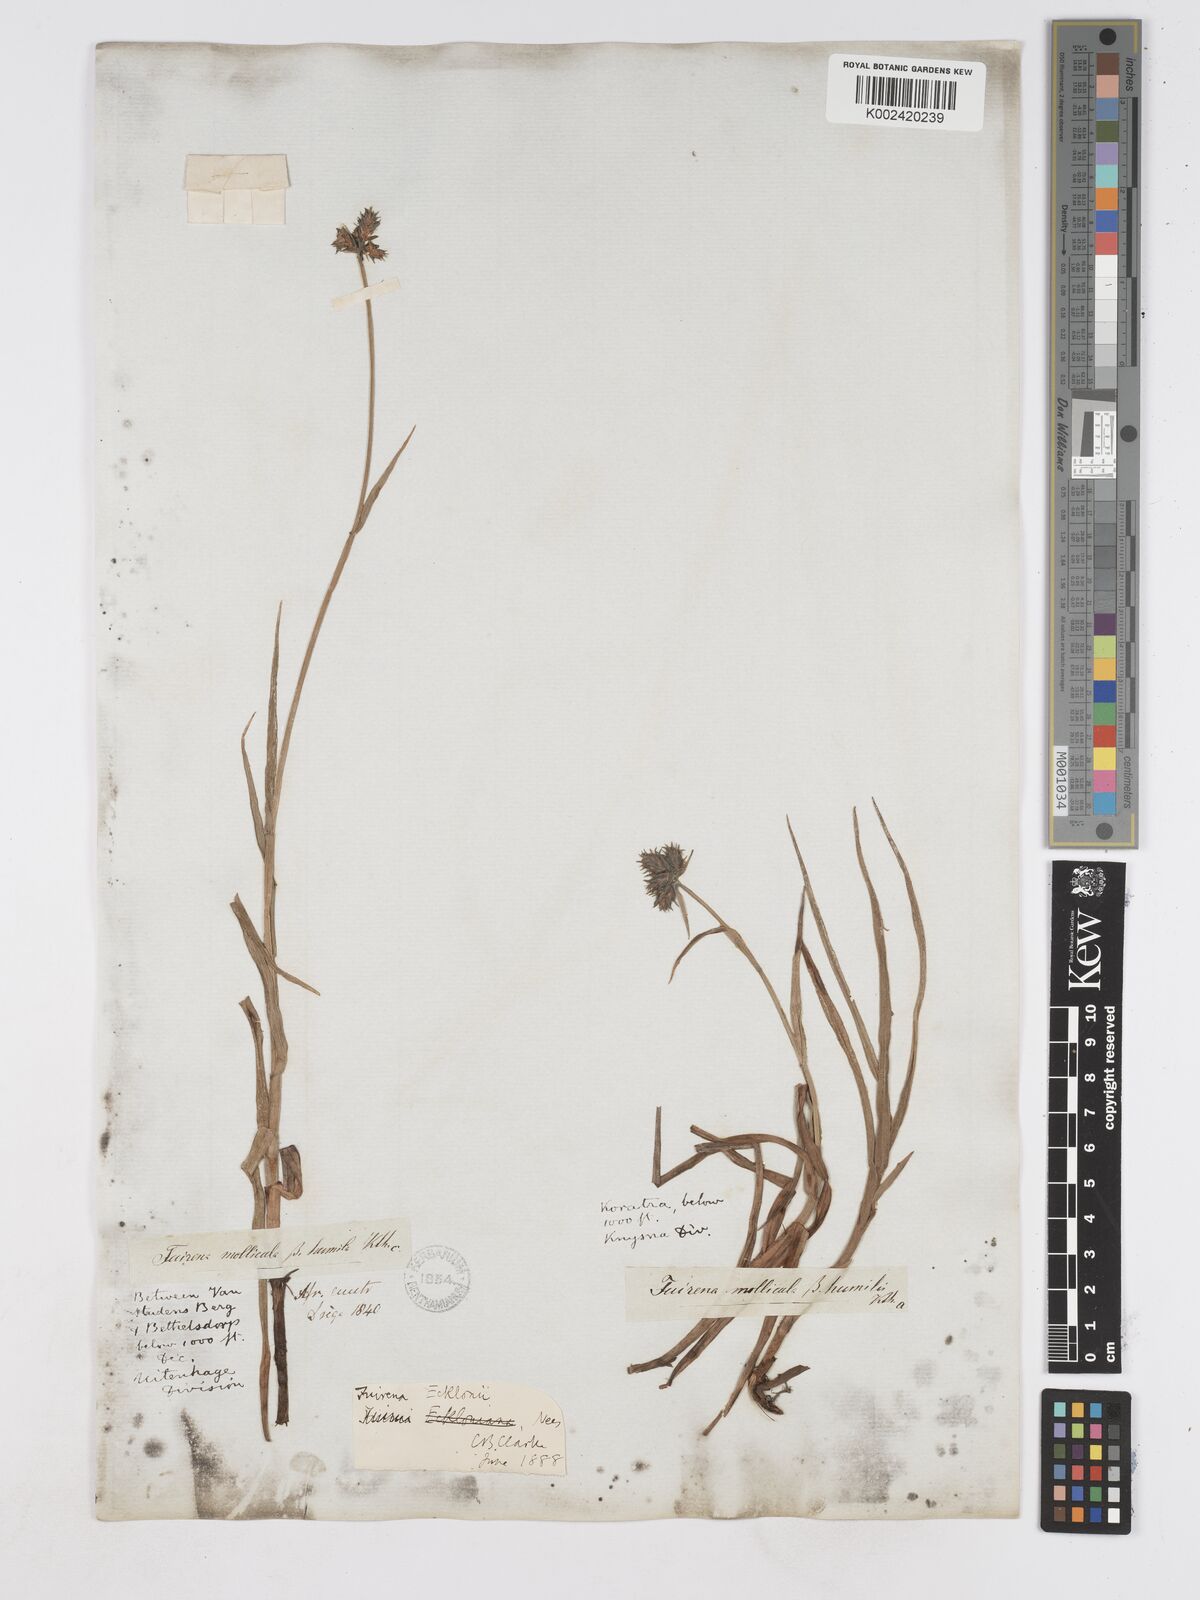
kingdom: Plantae
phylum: Tracheophyta
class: Liliopsida
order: Poales
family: Cyperaceae
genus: Fuirena
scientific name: Fuirena ecklonii
